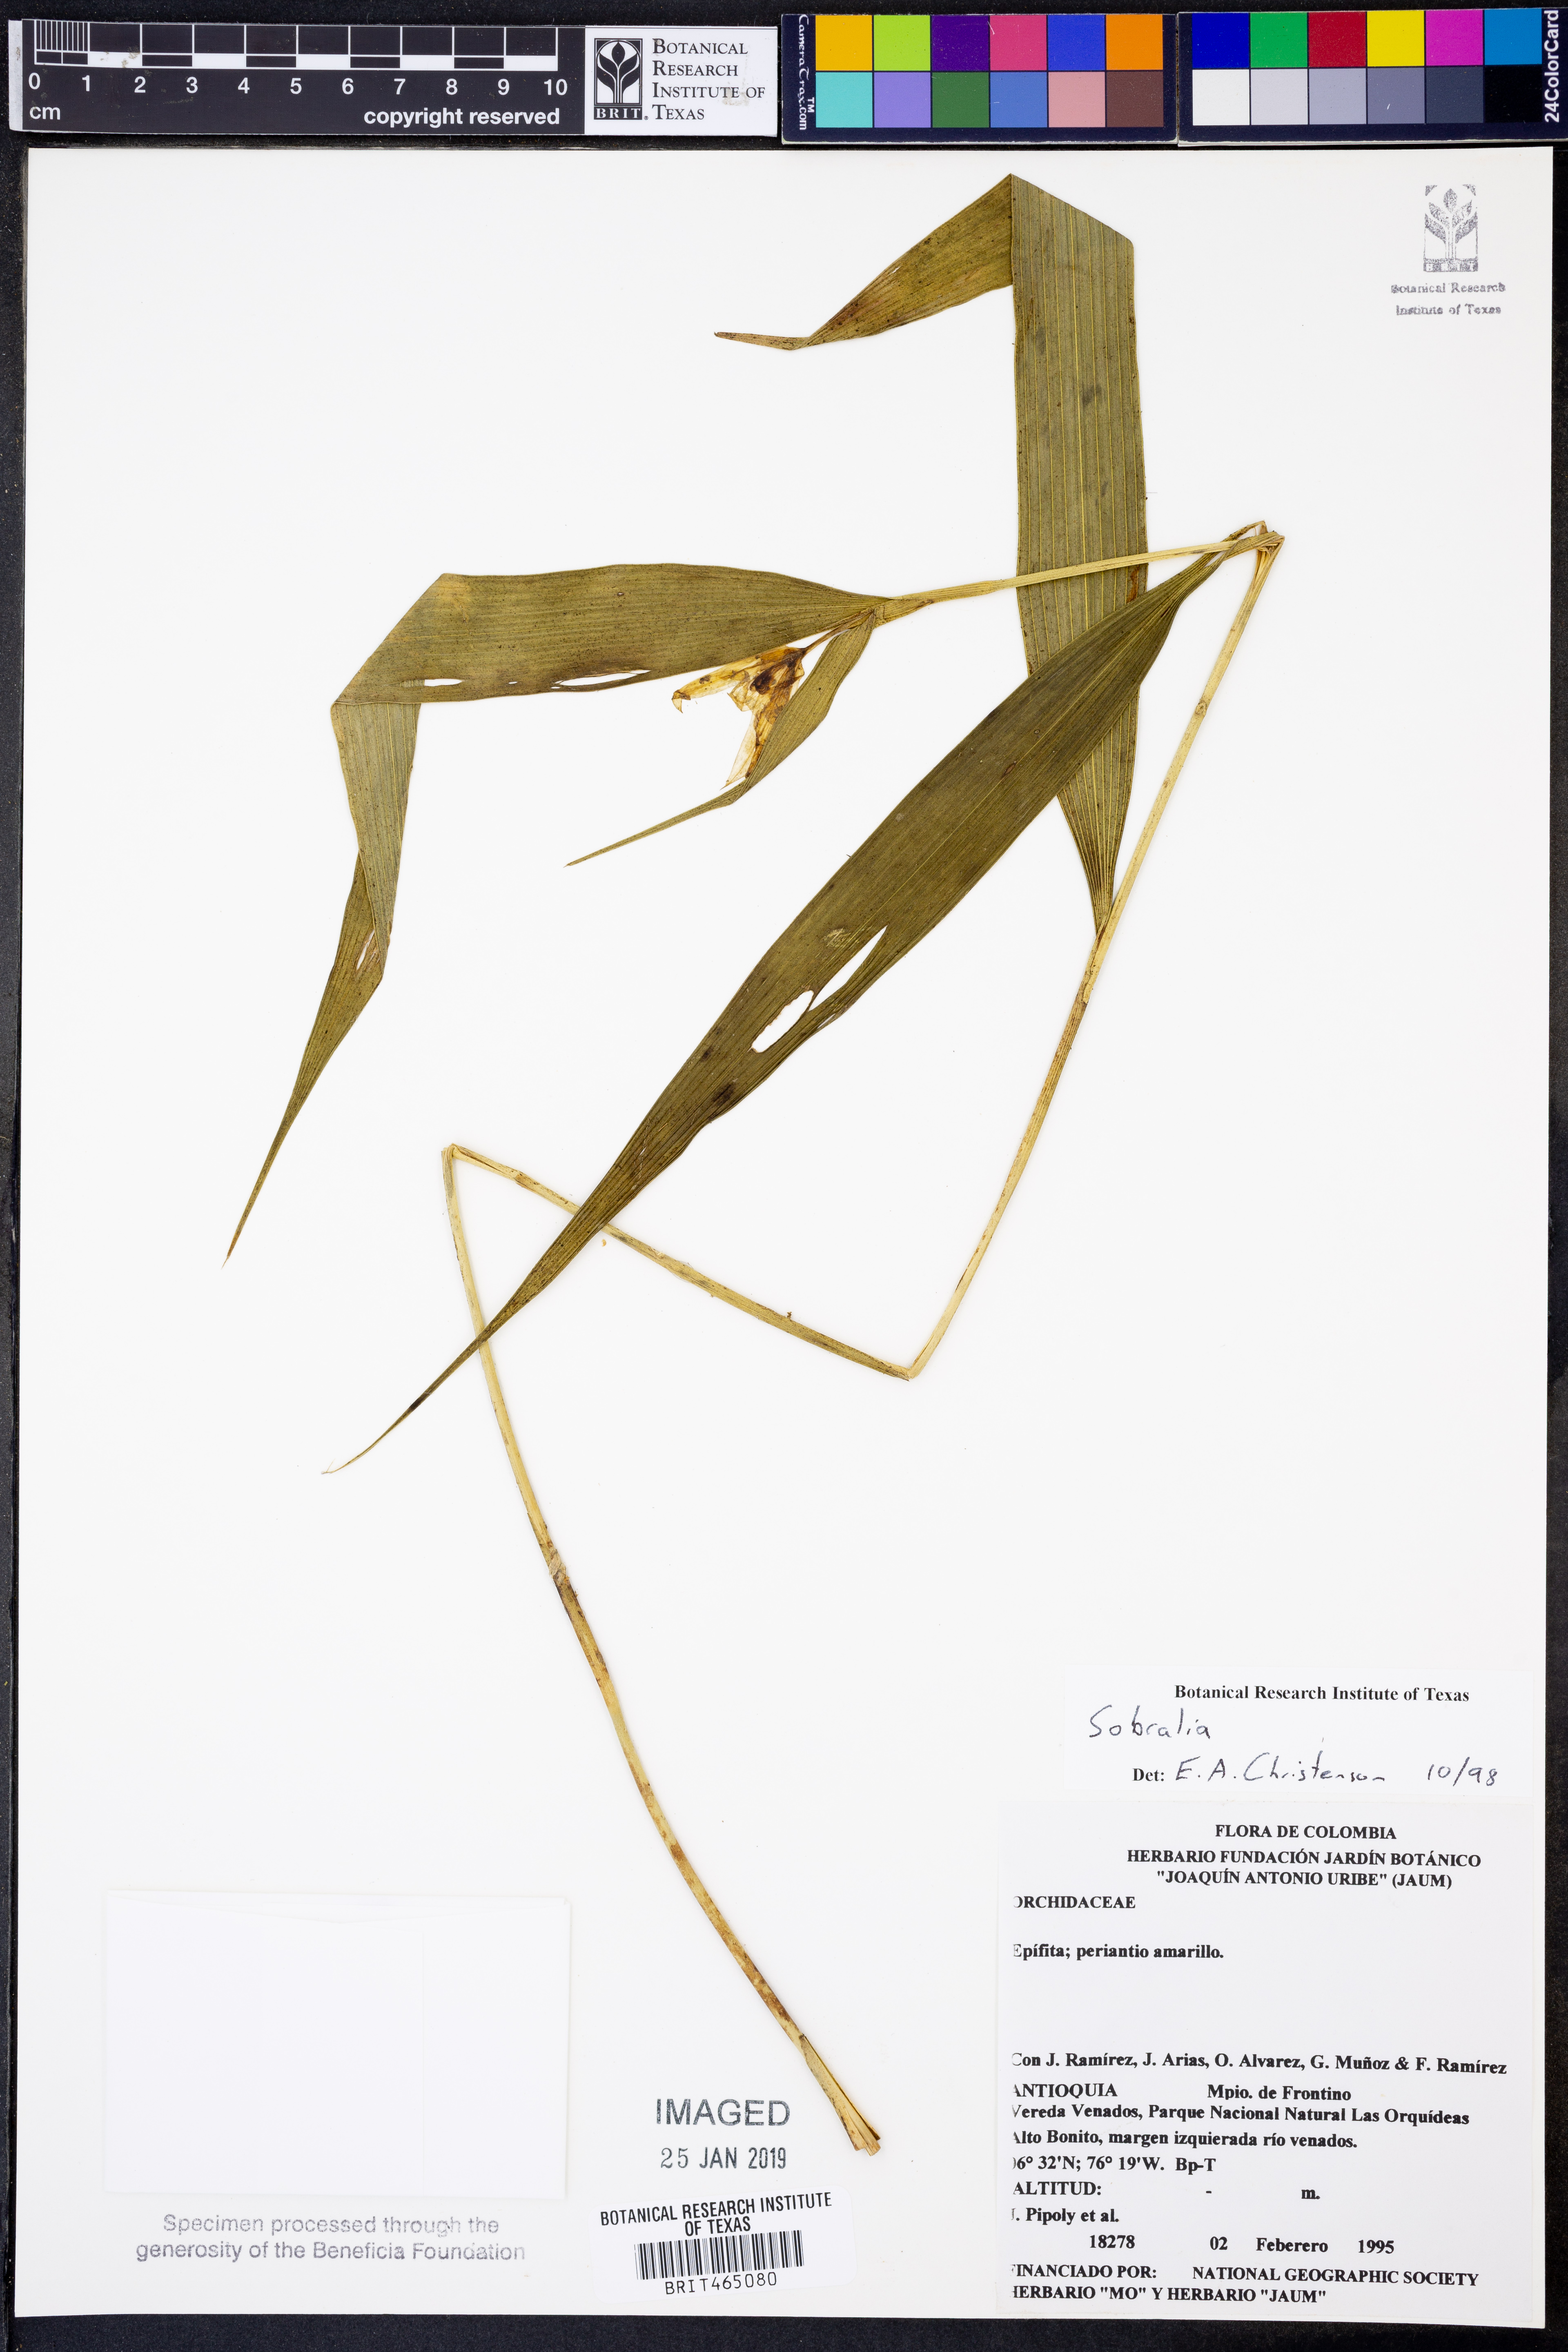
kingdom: Plantae
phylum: Tracheophyta
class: Liliopsida
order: Asparagales
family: Orchidaceae
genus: Sobralia
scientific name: Sobralia
